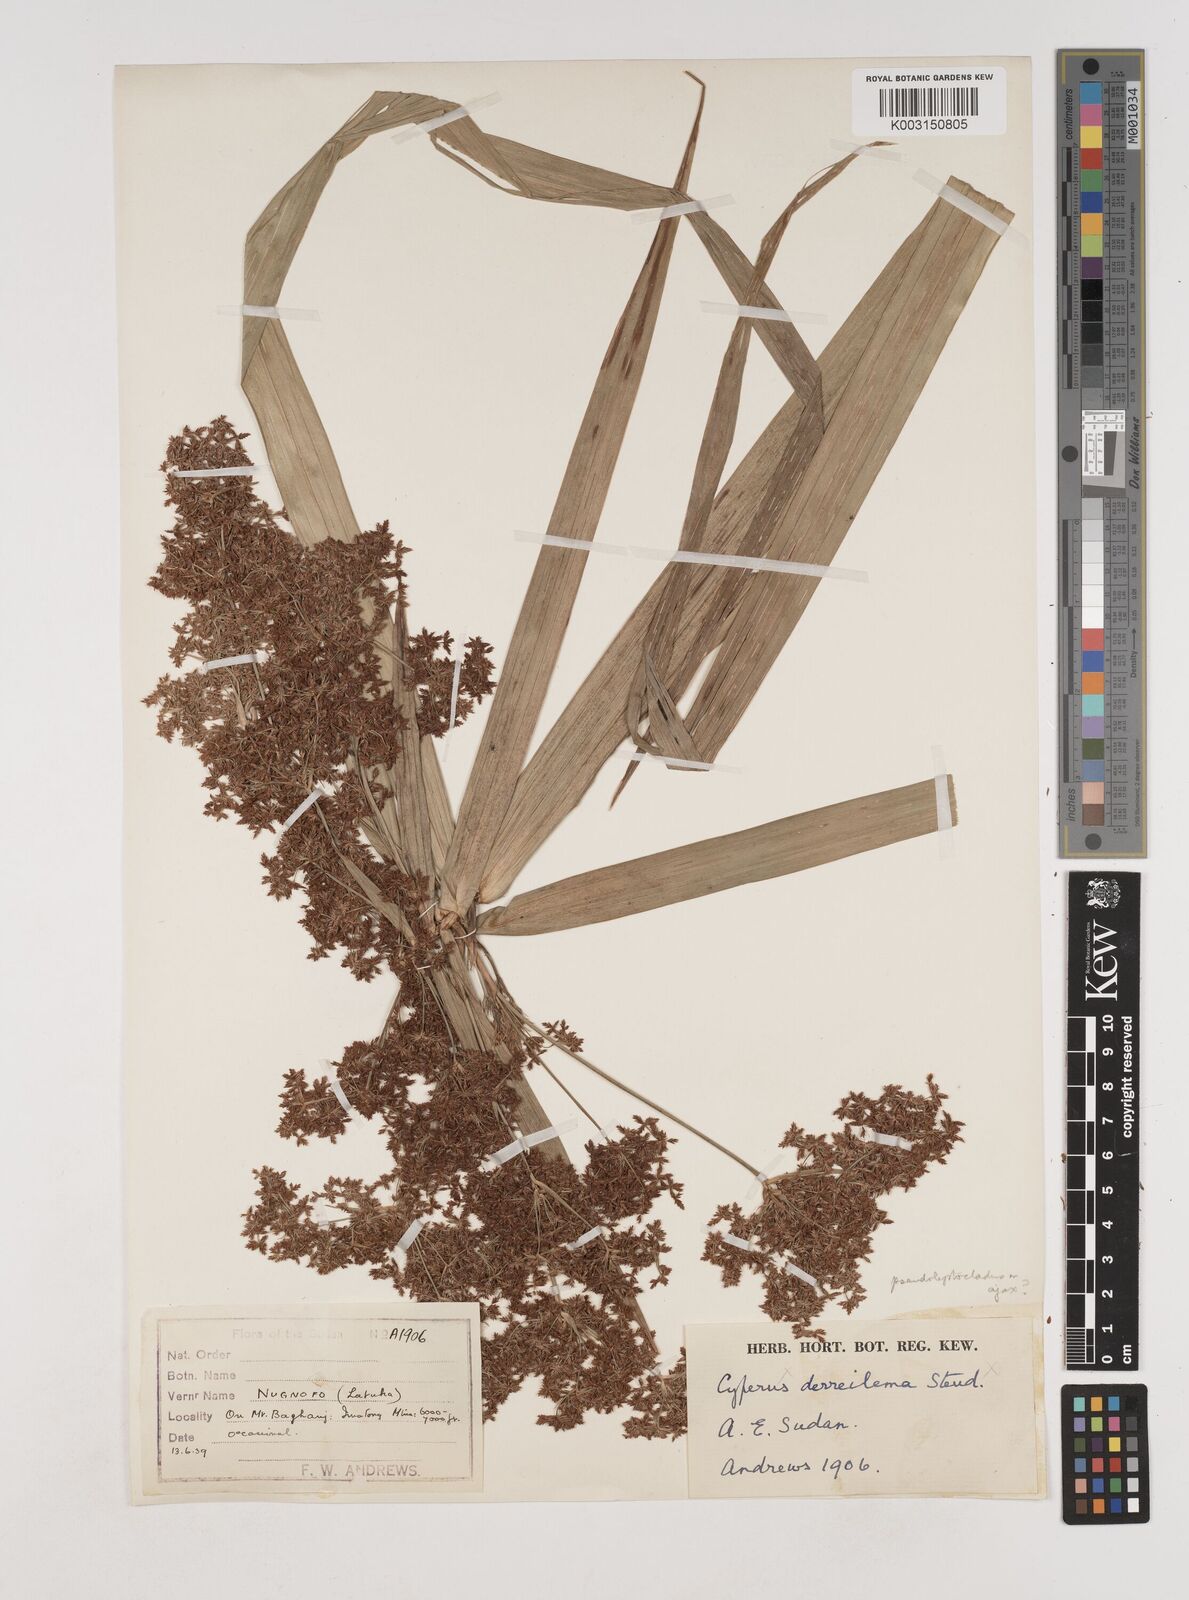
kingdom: Plantae
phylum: Tracheophyta
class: Liliopsida
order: Poales
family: Cyperaceae
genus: Cyperus
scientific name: Cyperus glaucophyllus
